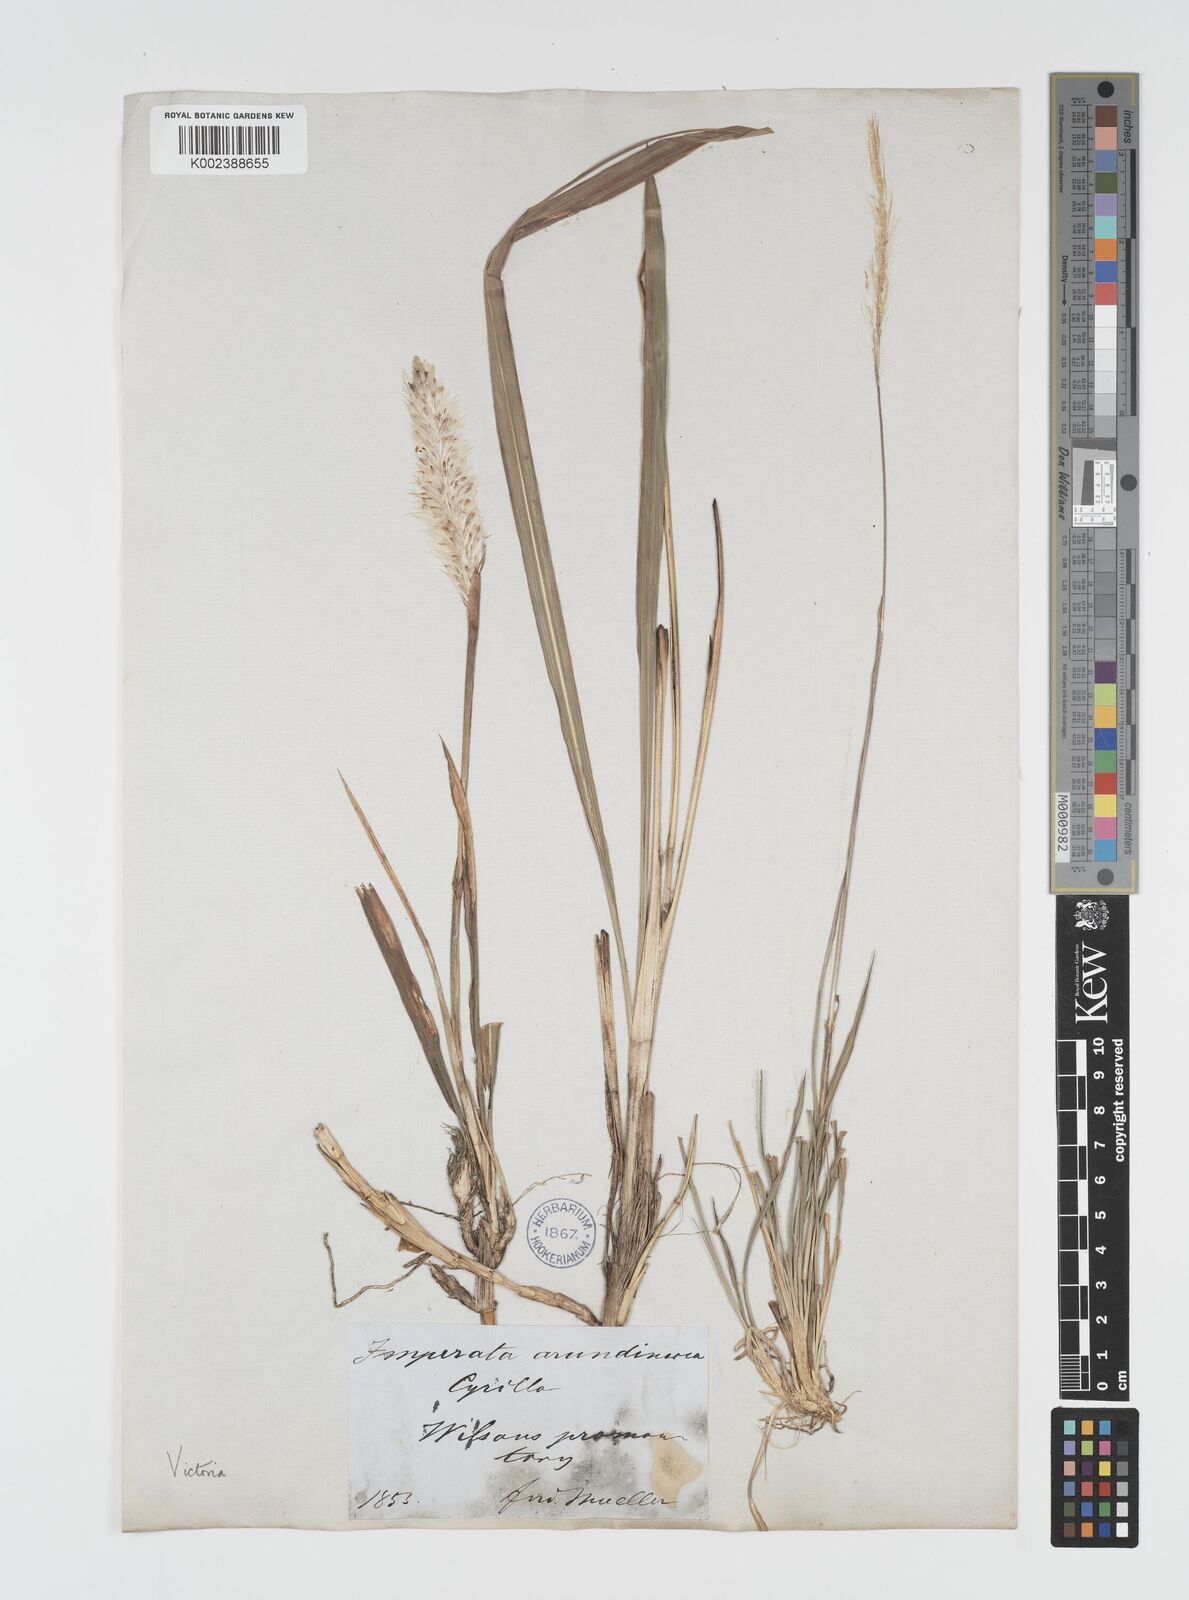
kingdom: Plantae
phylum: Tracheophyta
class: Liliopsida
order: Poales
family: Poaceae
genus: Imperata
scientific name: Imperata cylindrica
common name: Cogongrass
